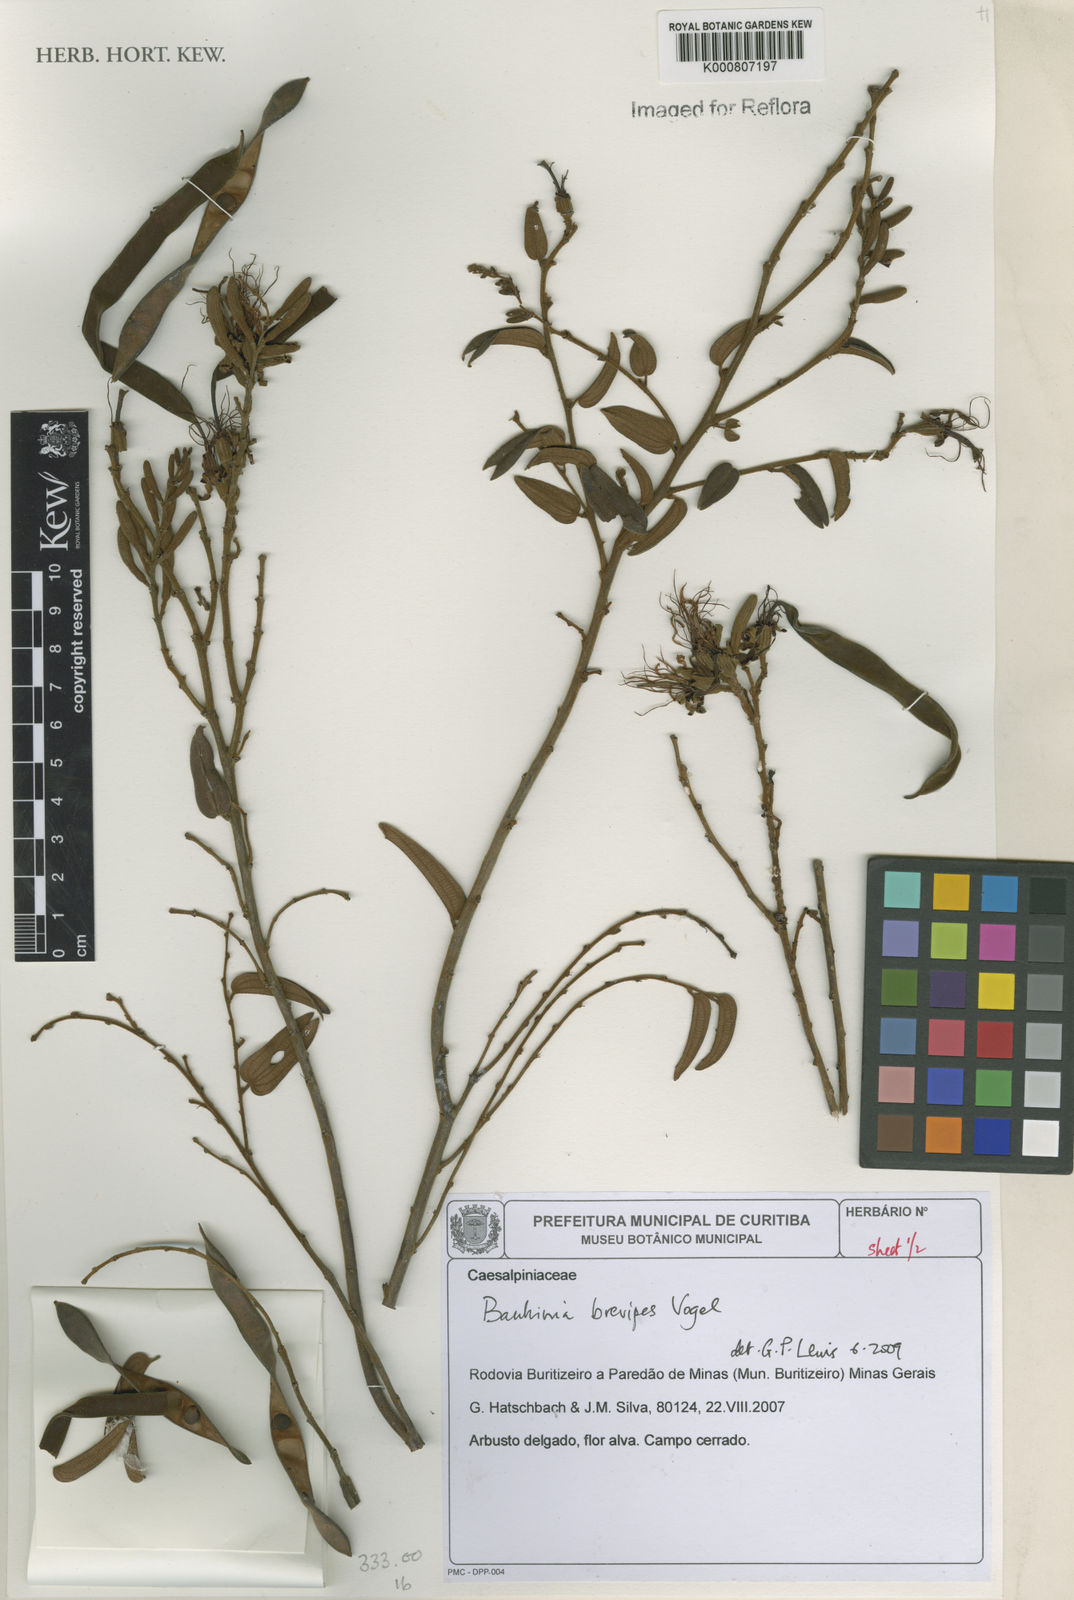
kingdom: Plantae
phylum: Tracheophyta
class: Magnoliopsida
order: Fabales
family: Fabaceae
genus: Bauhinia
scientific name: Bauhinia brevipes
